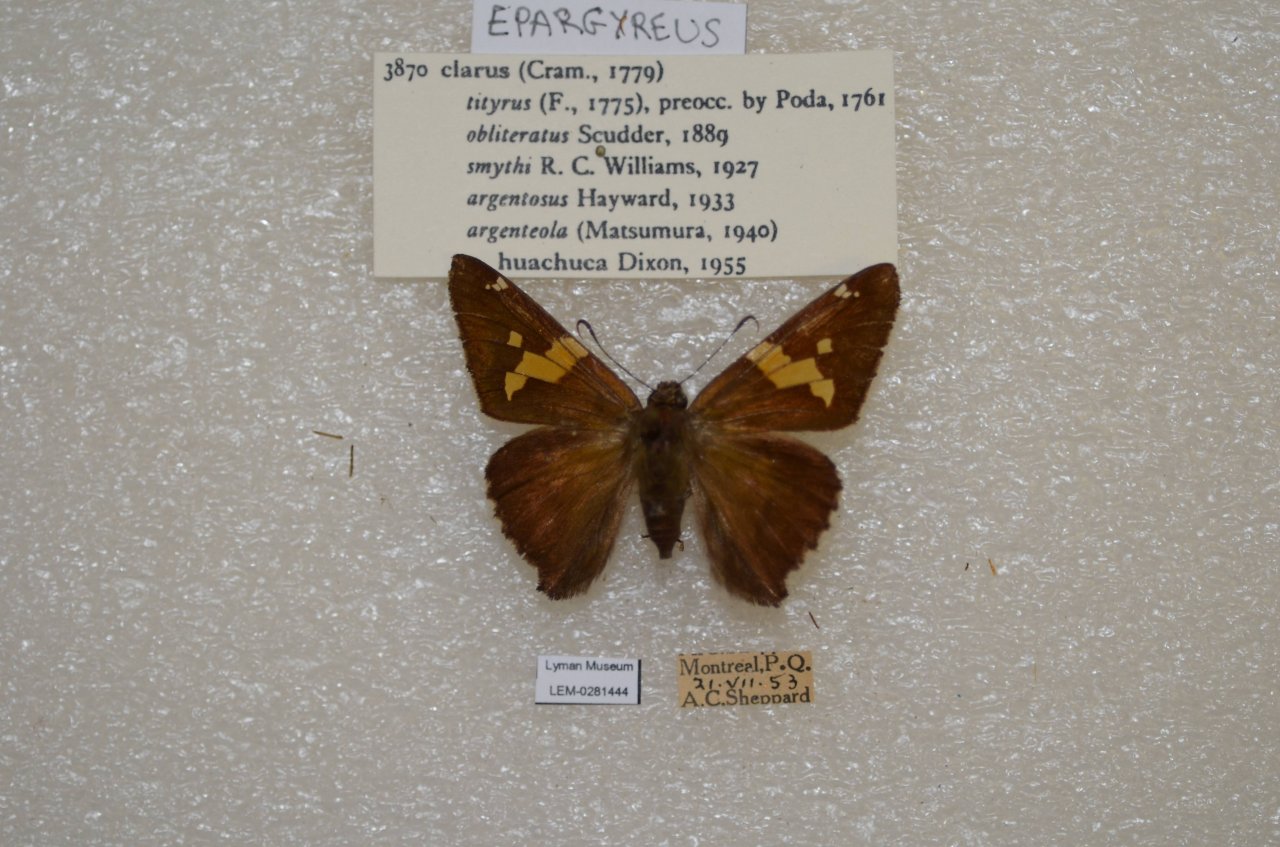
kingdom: Animalia
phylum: Arthropoda
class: Insecta
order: Lepidoptera
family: Hesperiidae
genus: Epargyreus
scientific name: Epargyreus clarus
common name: Silver-spotted Skipper
